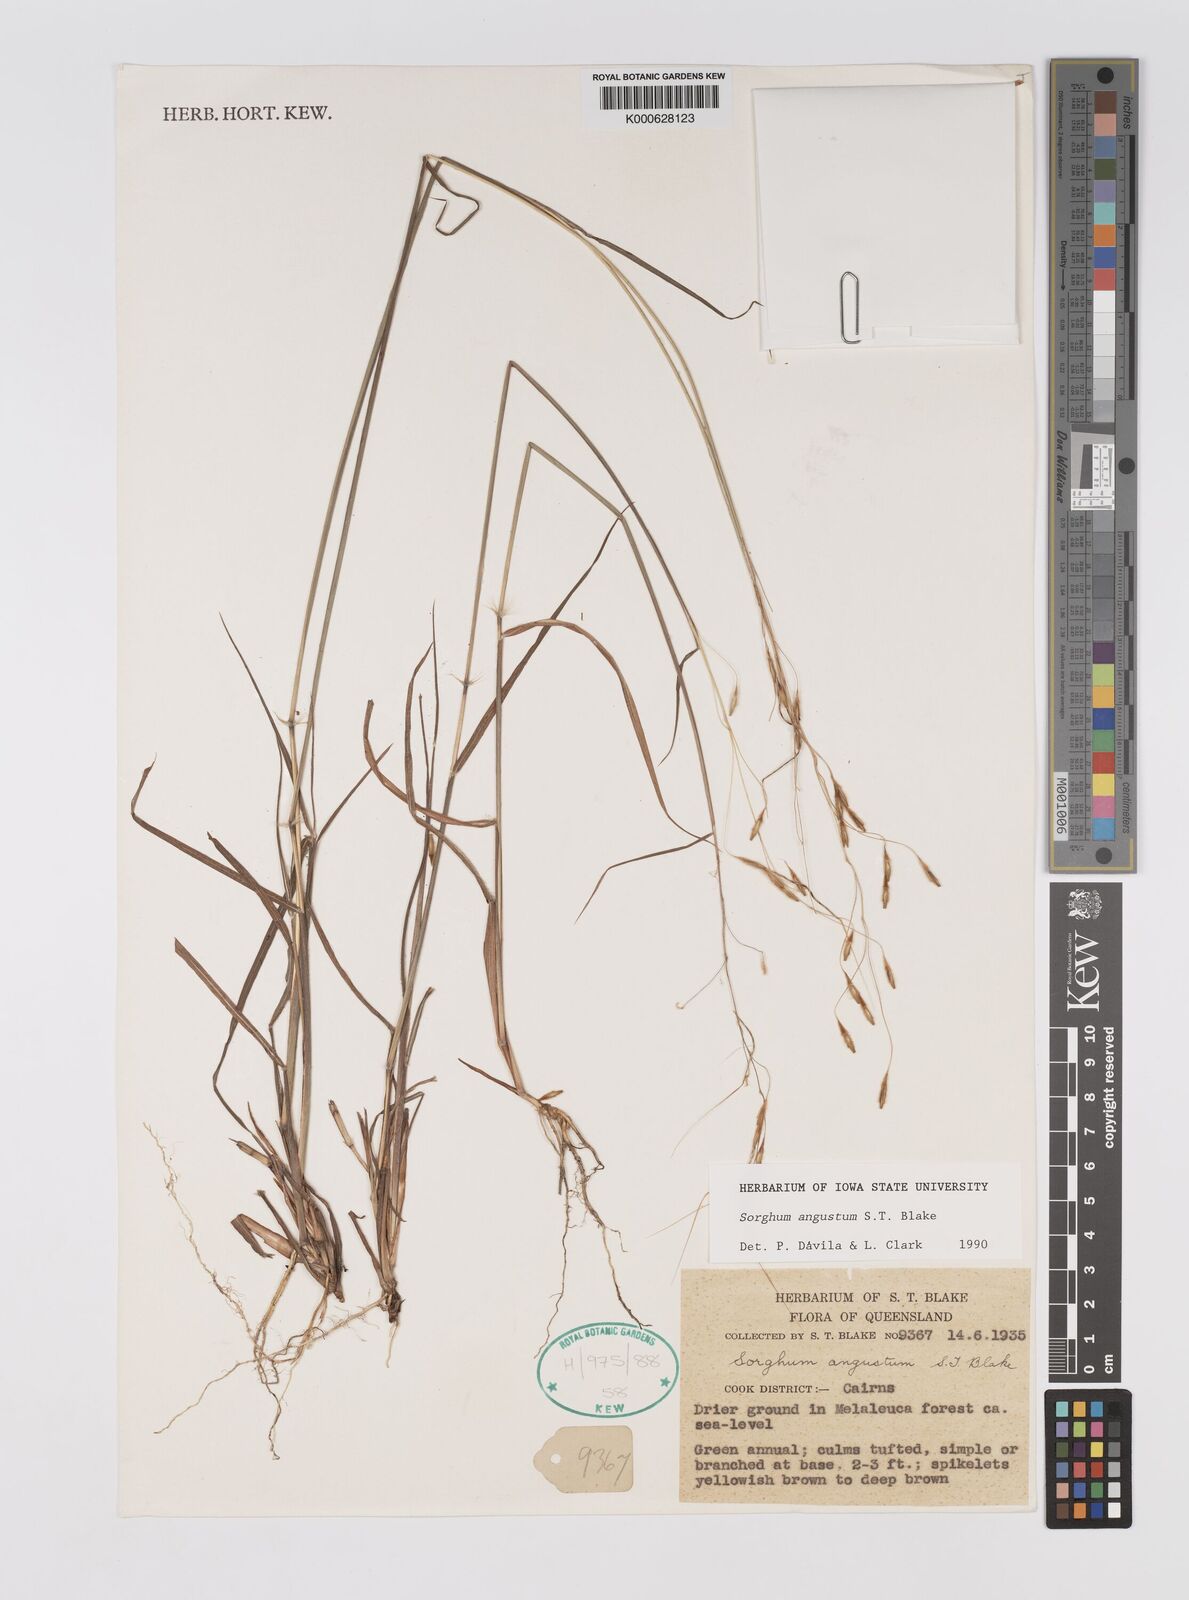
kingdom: Plantae
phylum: Tracheophyta
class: Liliopsida
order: Poales
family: Poaceae
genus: Sarga
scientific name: Sarga angusta
